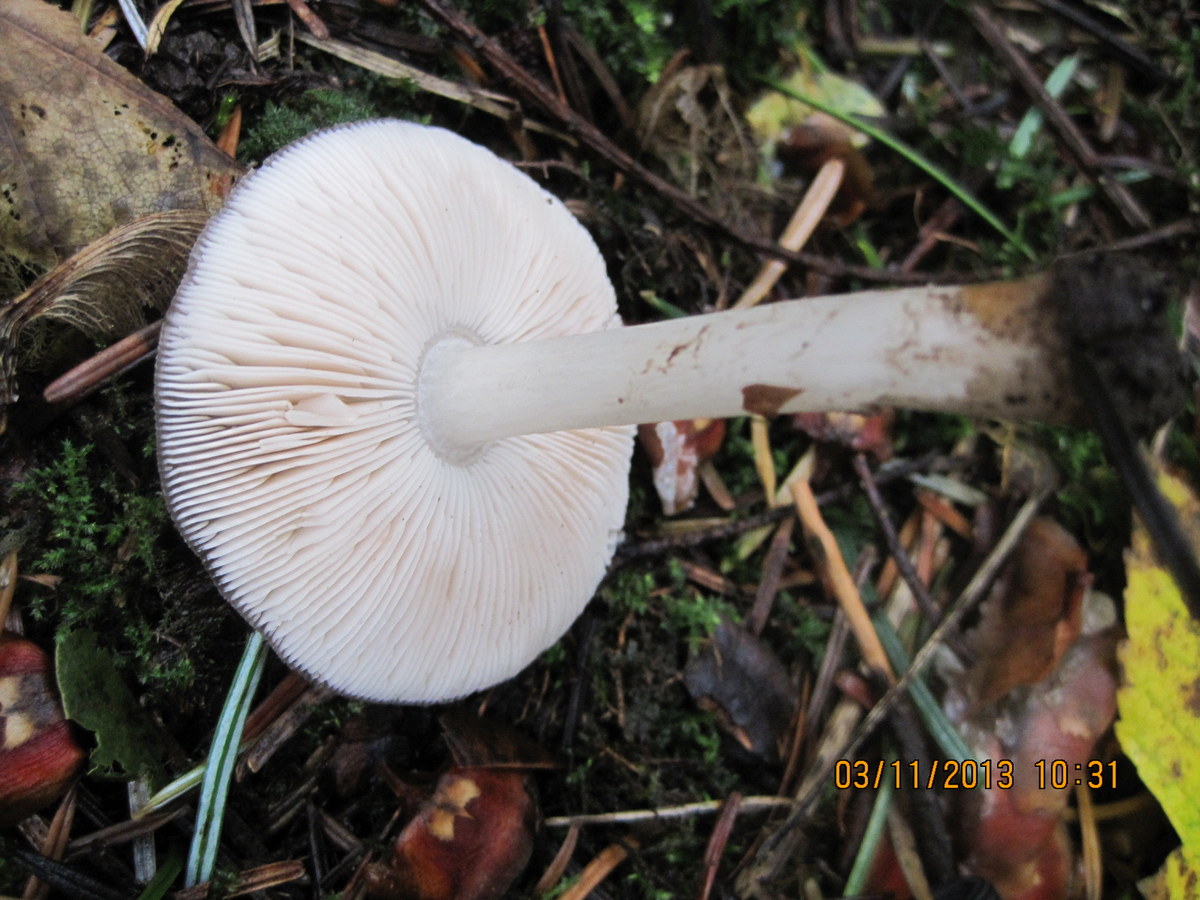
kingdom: Fungi
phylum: Basidiomycota
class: Agaricomycetes
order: Agaricales
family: Pluteaceae
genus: Pluteus
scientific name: Pluteus pouzarianus
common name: plantage-skærmhat
